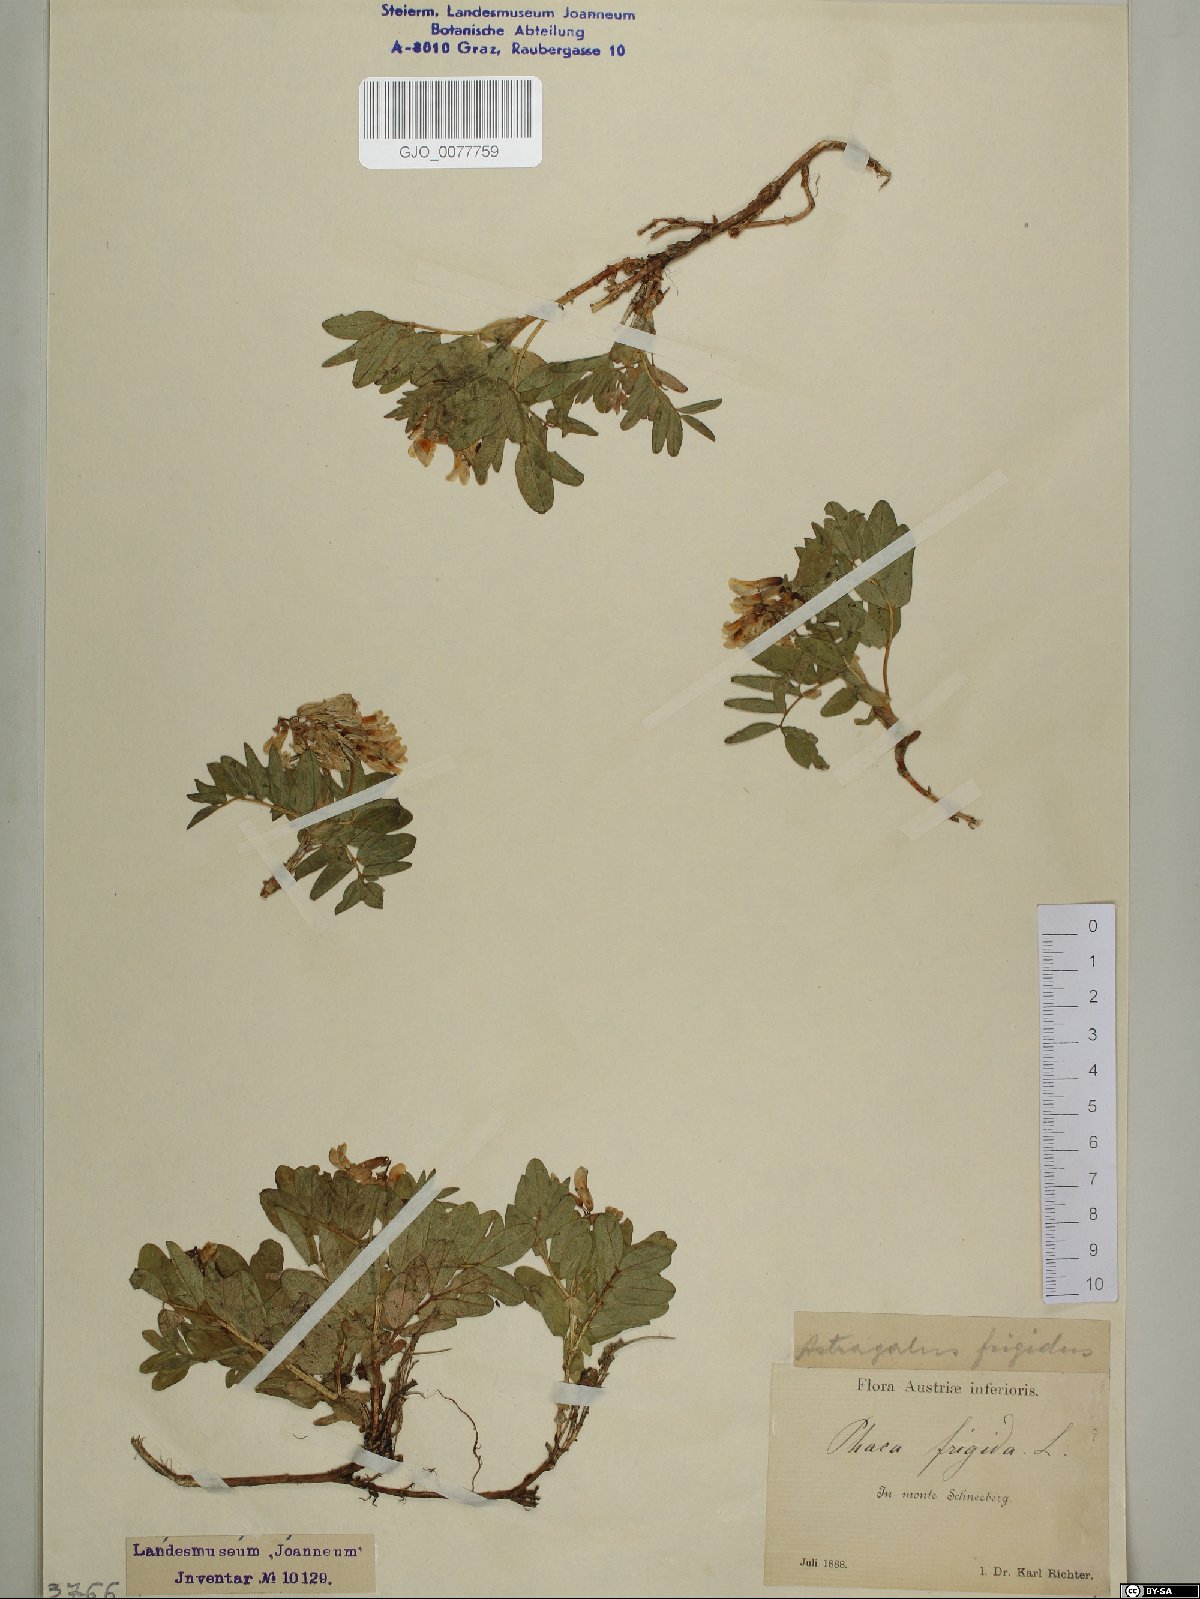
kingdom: Plantae
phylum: Tracheophyta
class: Magnoliopsida
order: Fabales
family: Fabaceae
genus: Astragalus
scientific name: Astragalus frigidus
